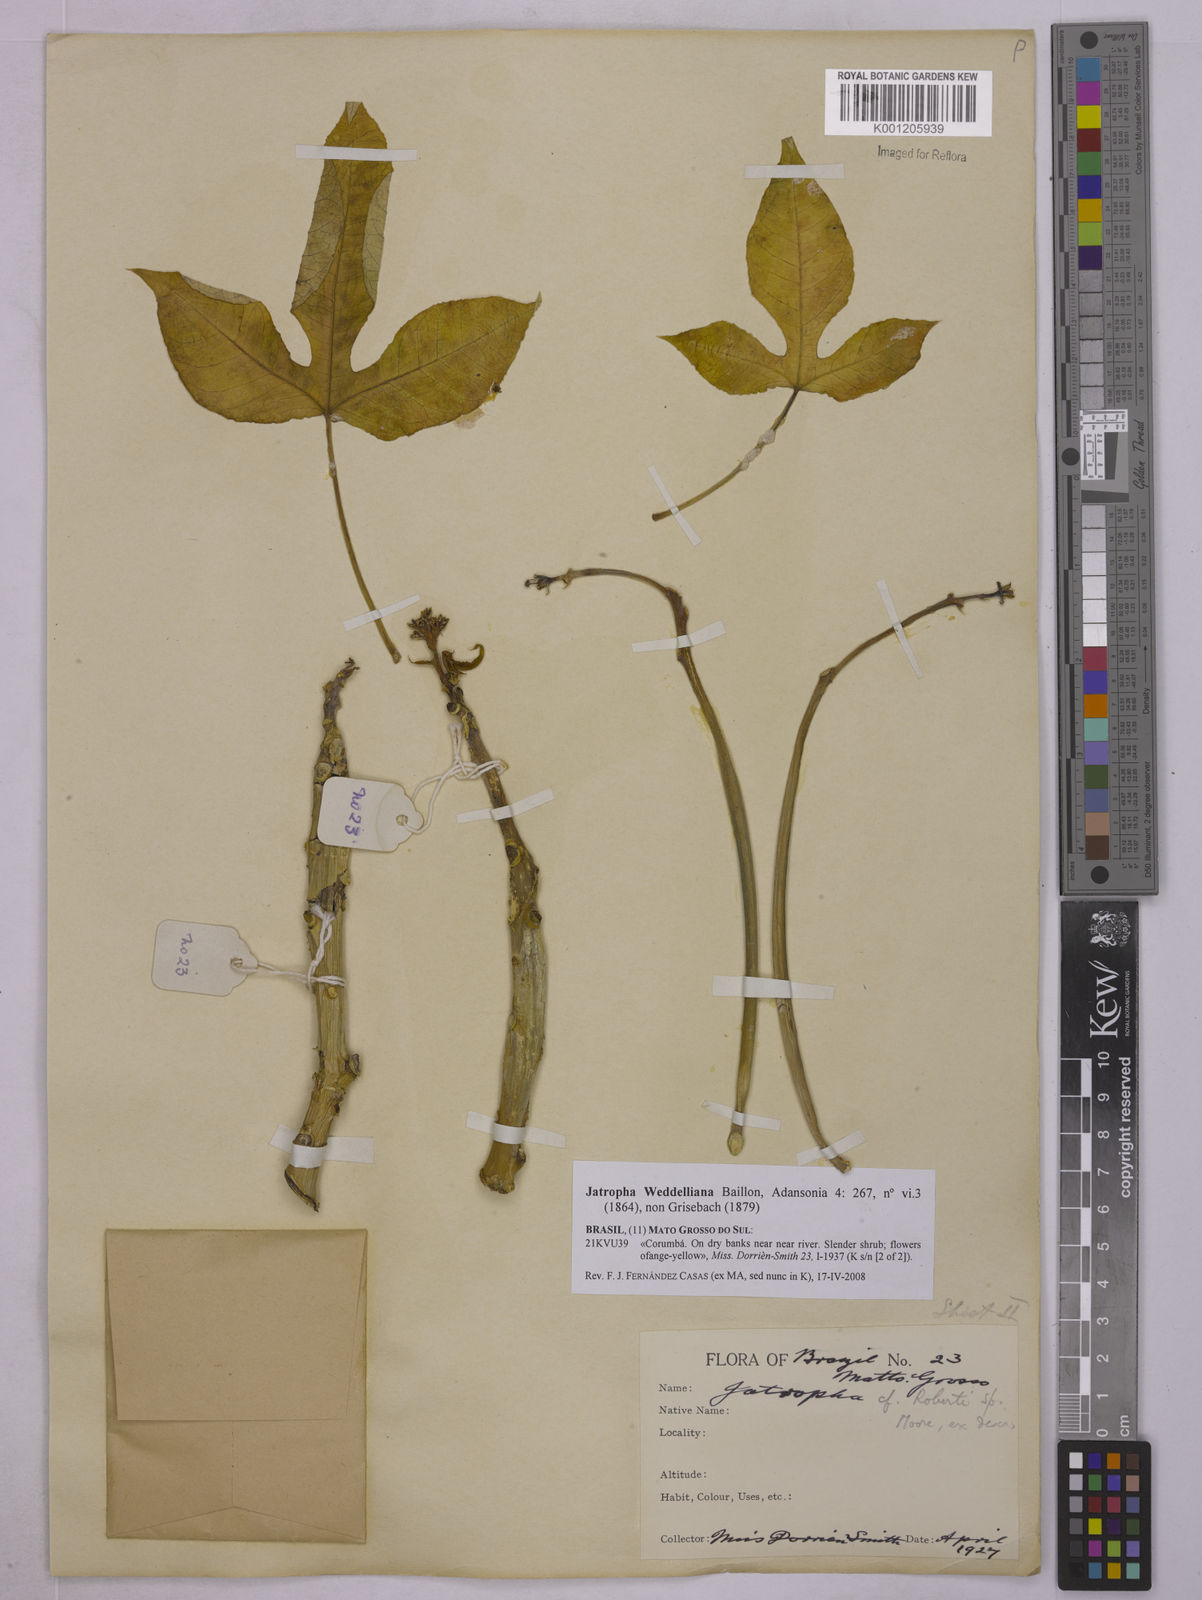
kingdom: Plantae
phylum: Tracheophyta
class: Magnoliopsida
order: Malpighiales
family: Euphorbiaceae
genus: Jatropha
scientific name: Jatropha weddeliana
